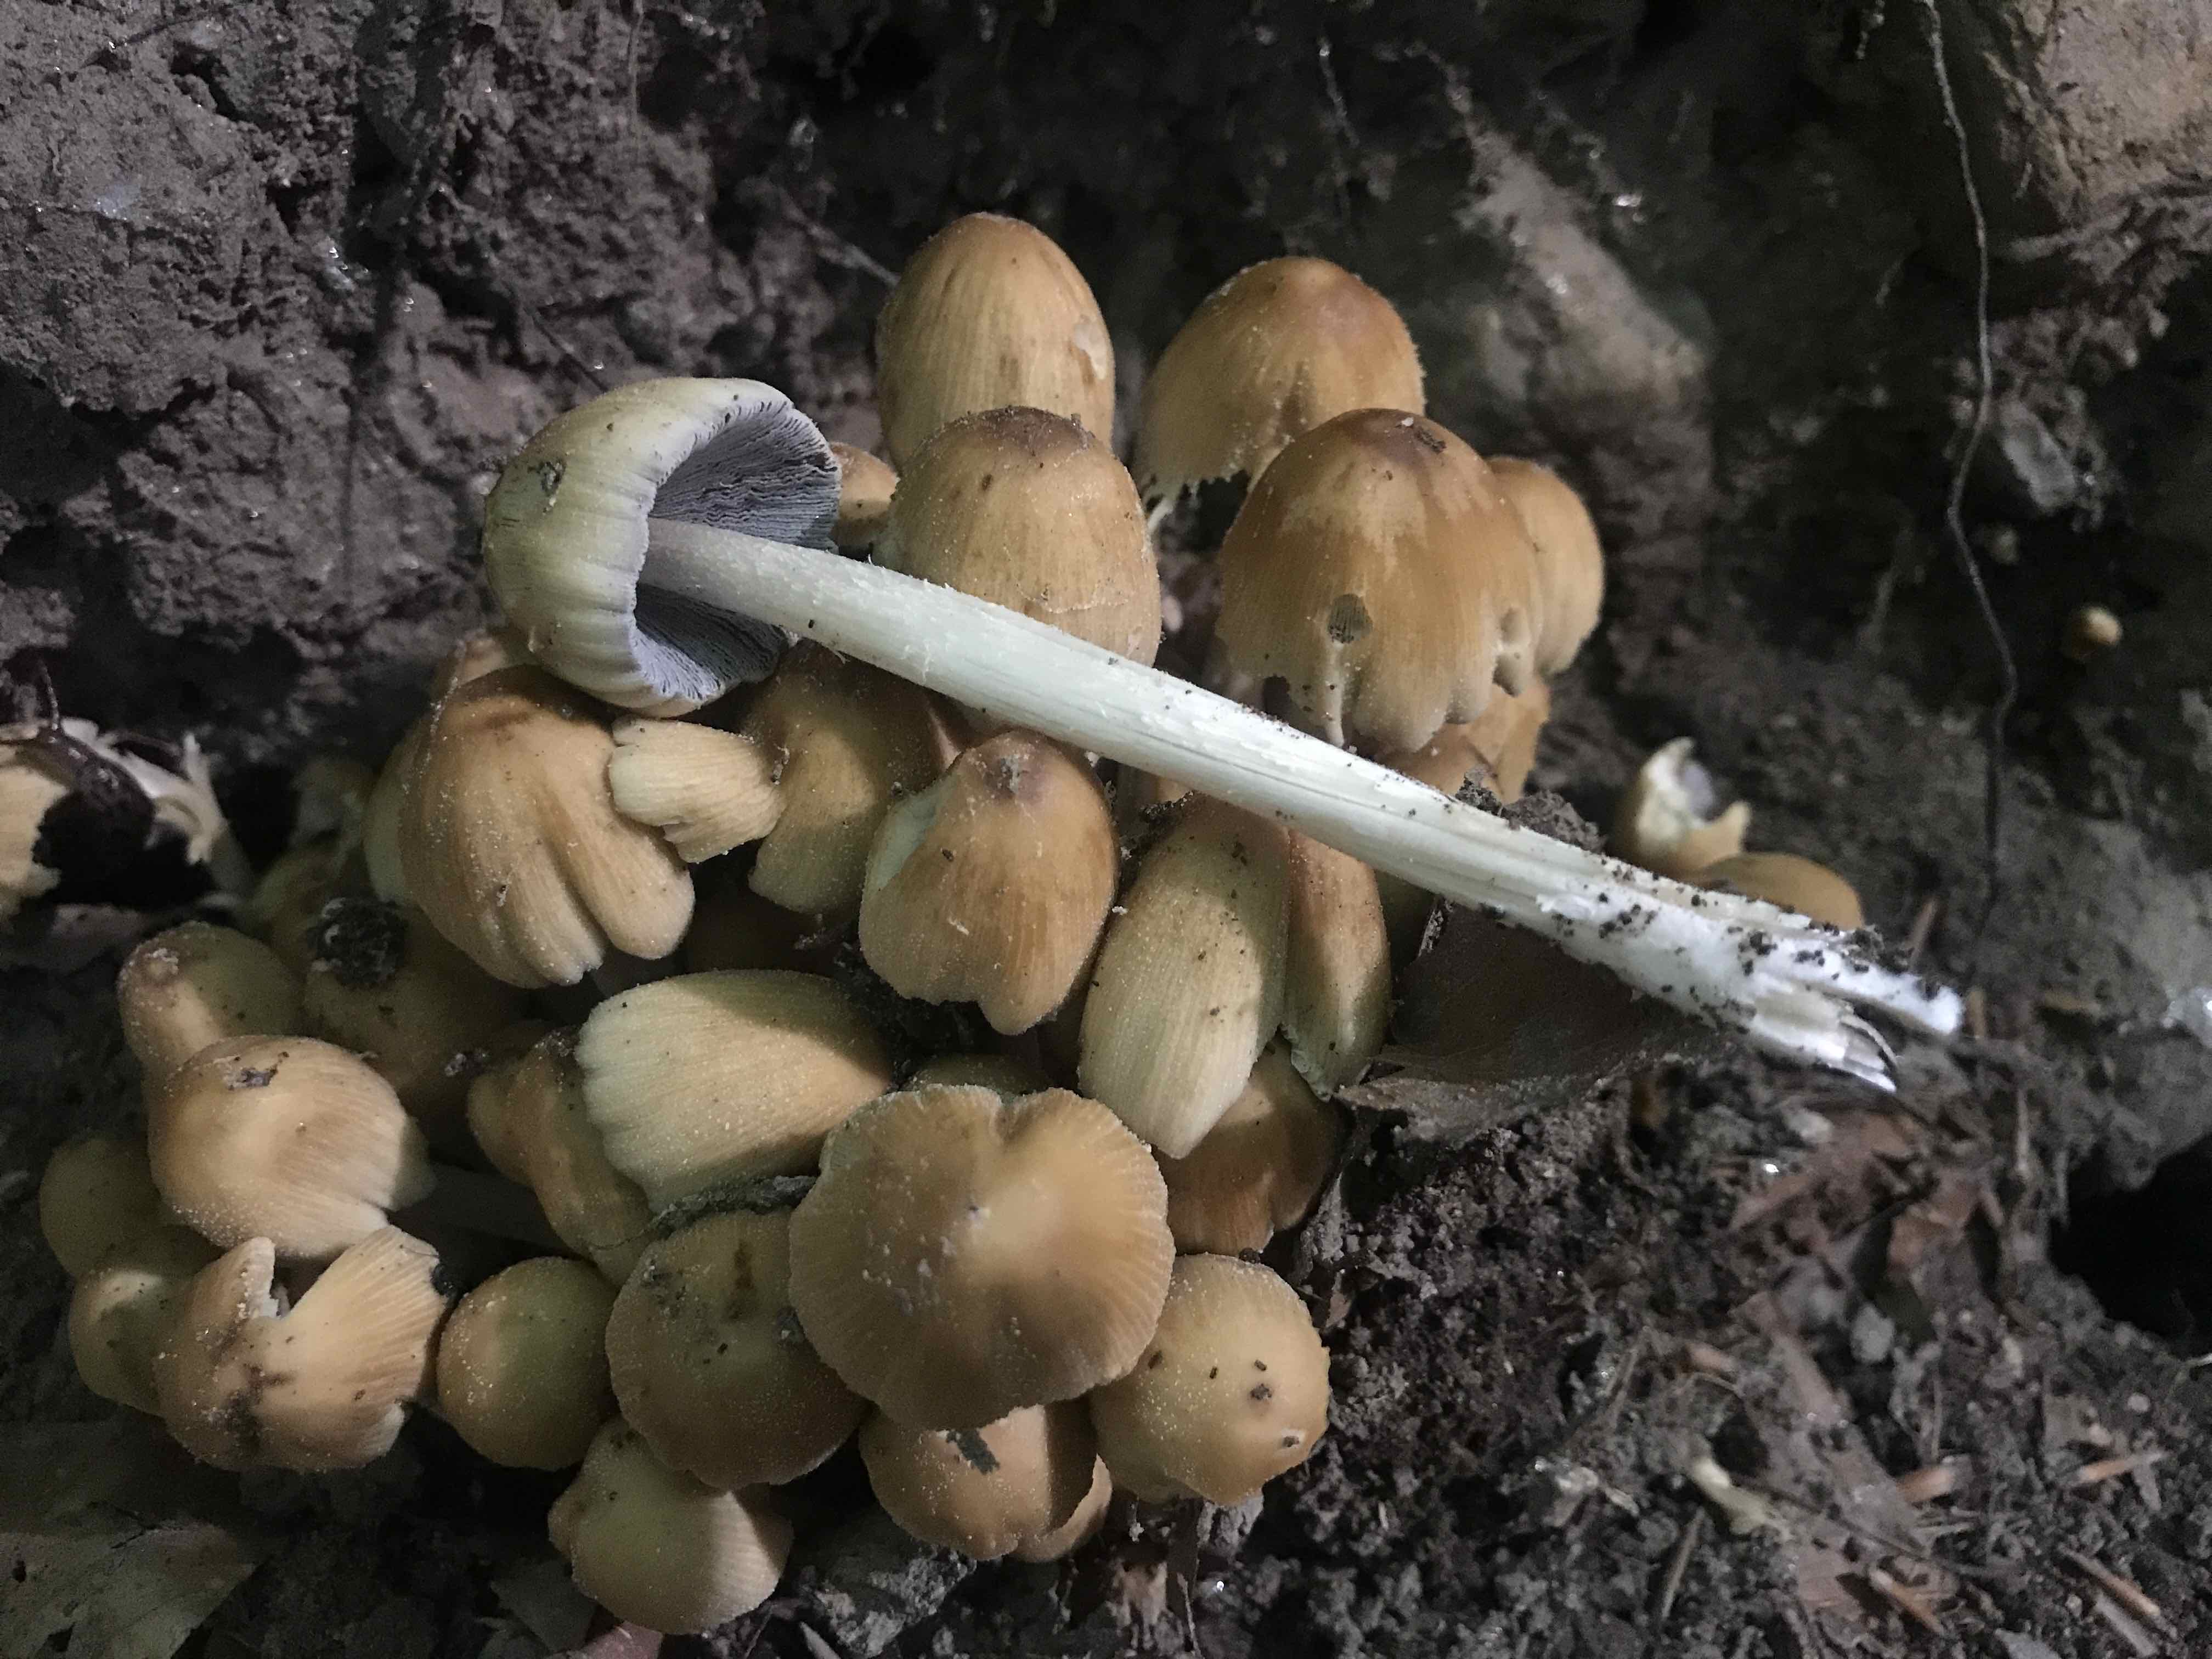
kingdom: Fungi
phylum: Basidiomycota
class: Agaricomycetes
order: Agaricales
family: Psathyrellaceae
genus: Coprinellus
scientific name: Coprinellus micaceus
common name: glimmer-blækhat
